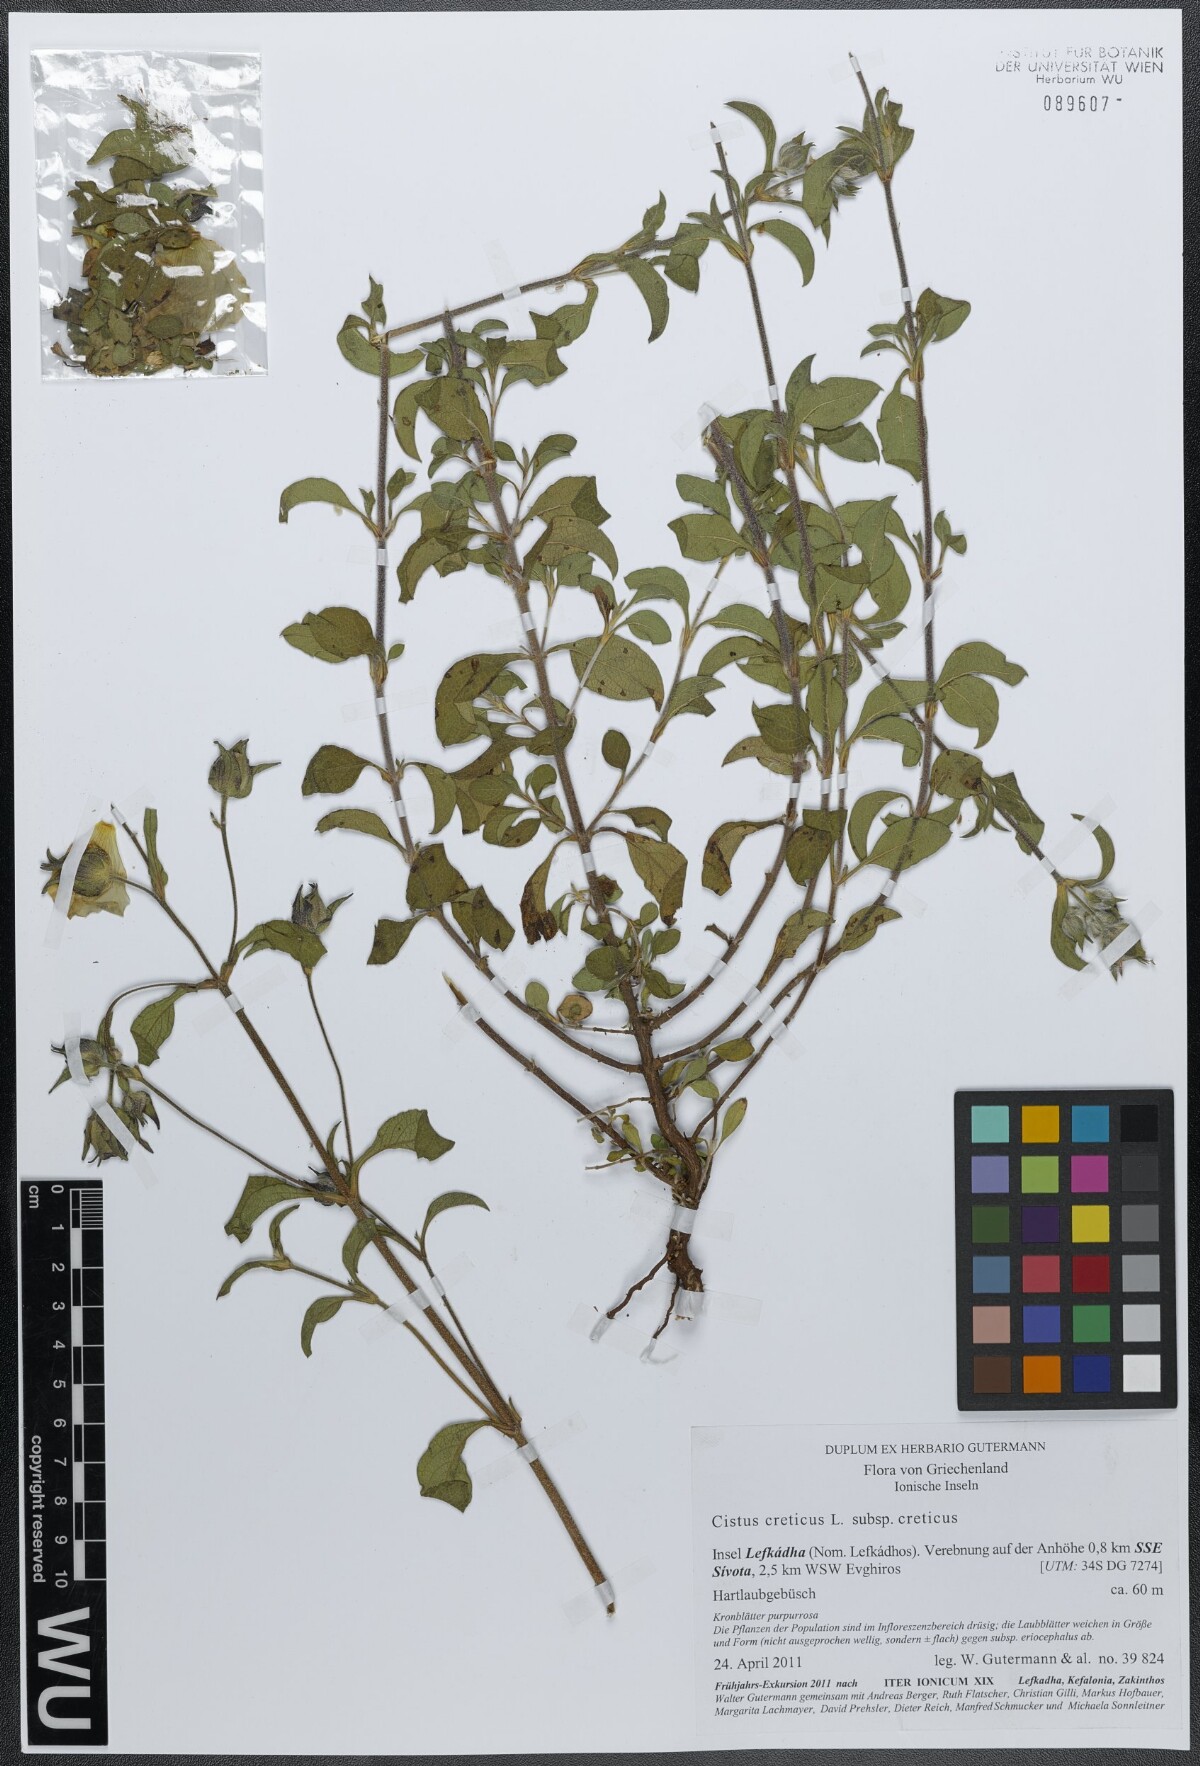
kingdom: Plantae
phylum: Tracheophyta
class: Magnoliopsida
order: Malvales
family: Cistaceae
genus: Cistus
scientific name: Cistus creticus
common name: Cretan rockrose
